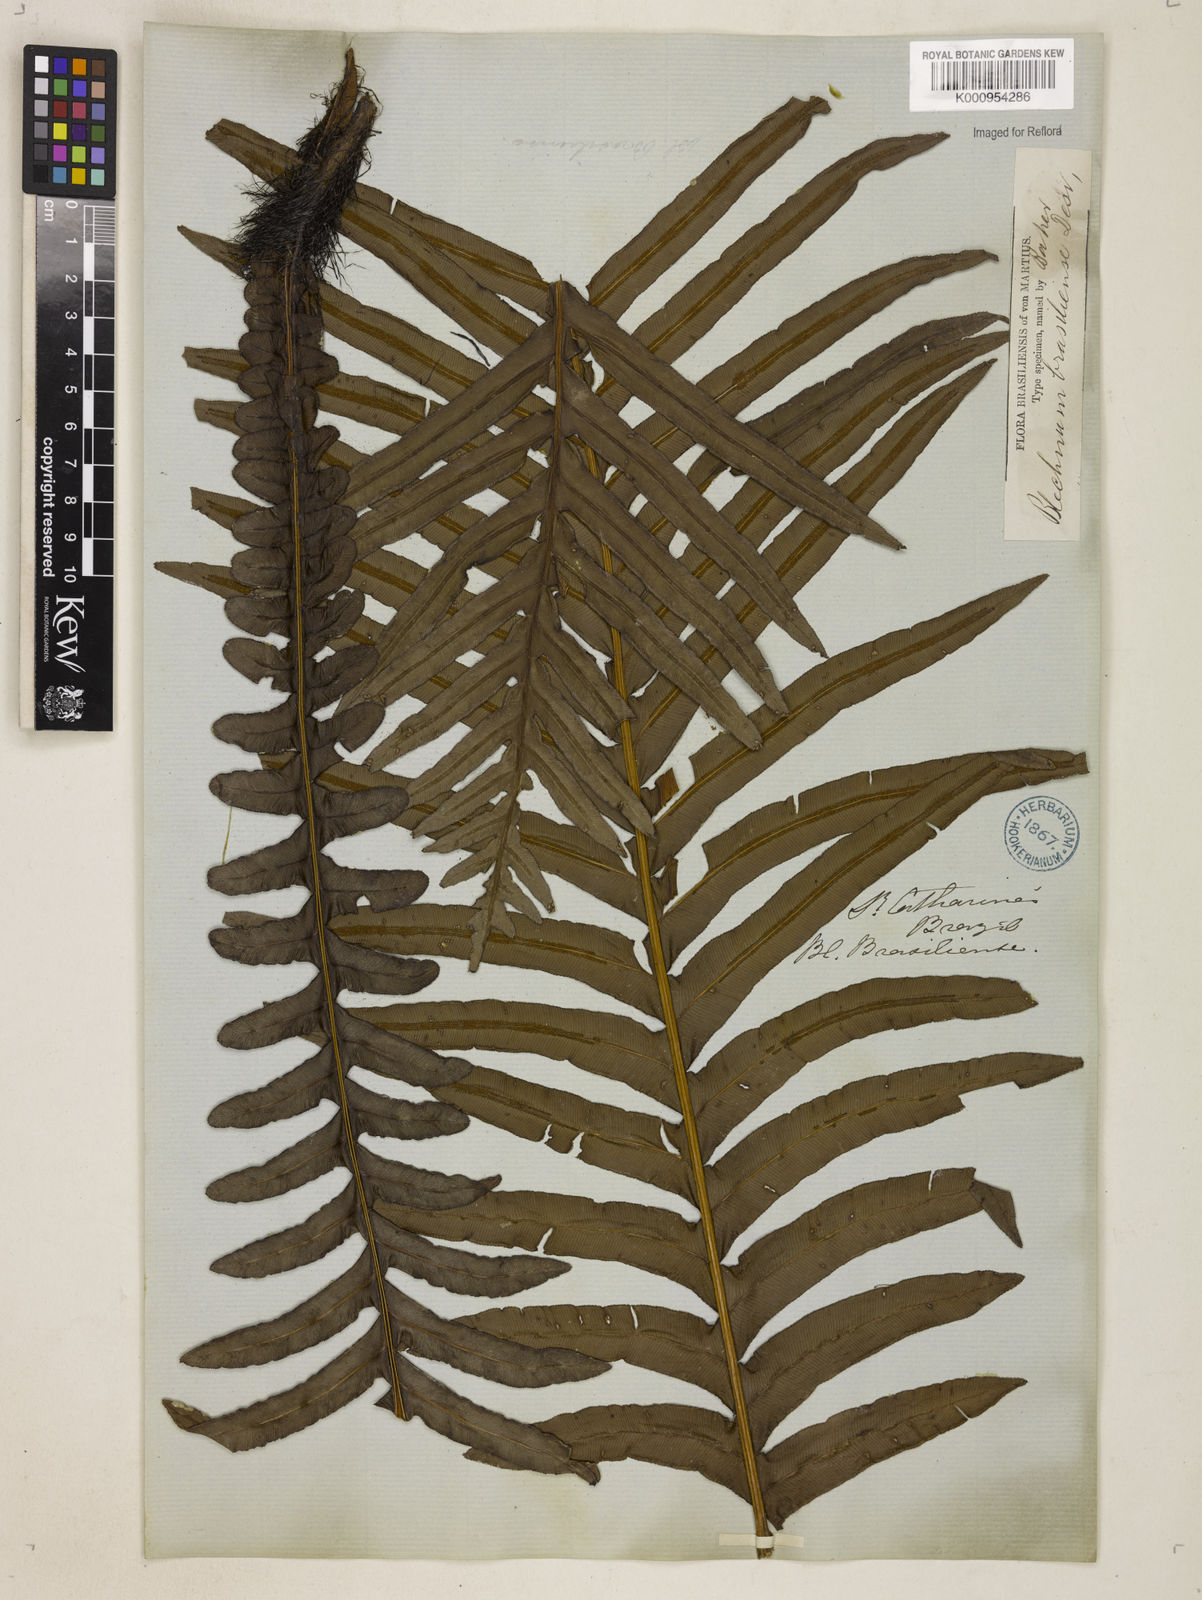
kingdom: Plantae
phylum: Tracheophyta
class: Polypodiopsida
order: Polypodiales
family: Blechnaceae
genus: Neoblechnum
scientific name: Neoblechnum brasiliense
